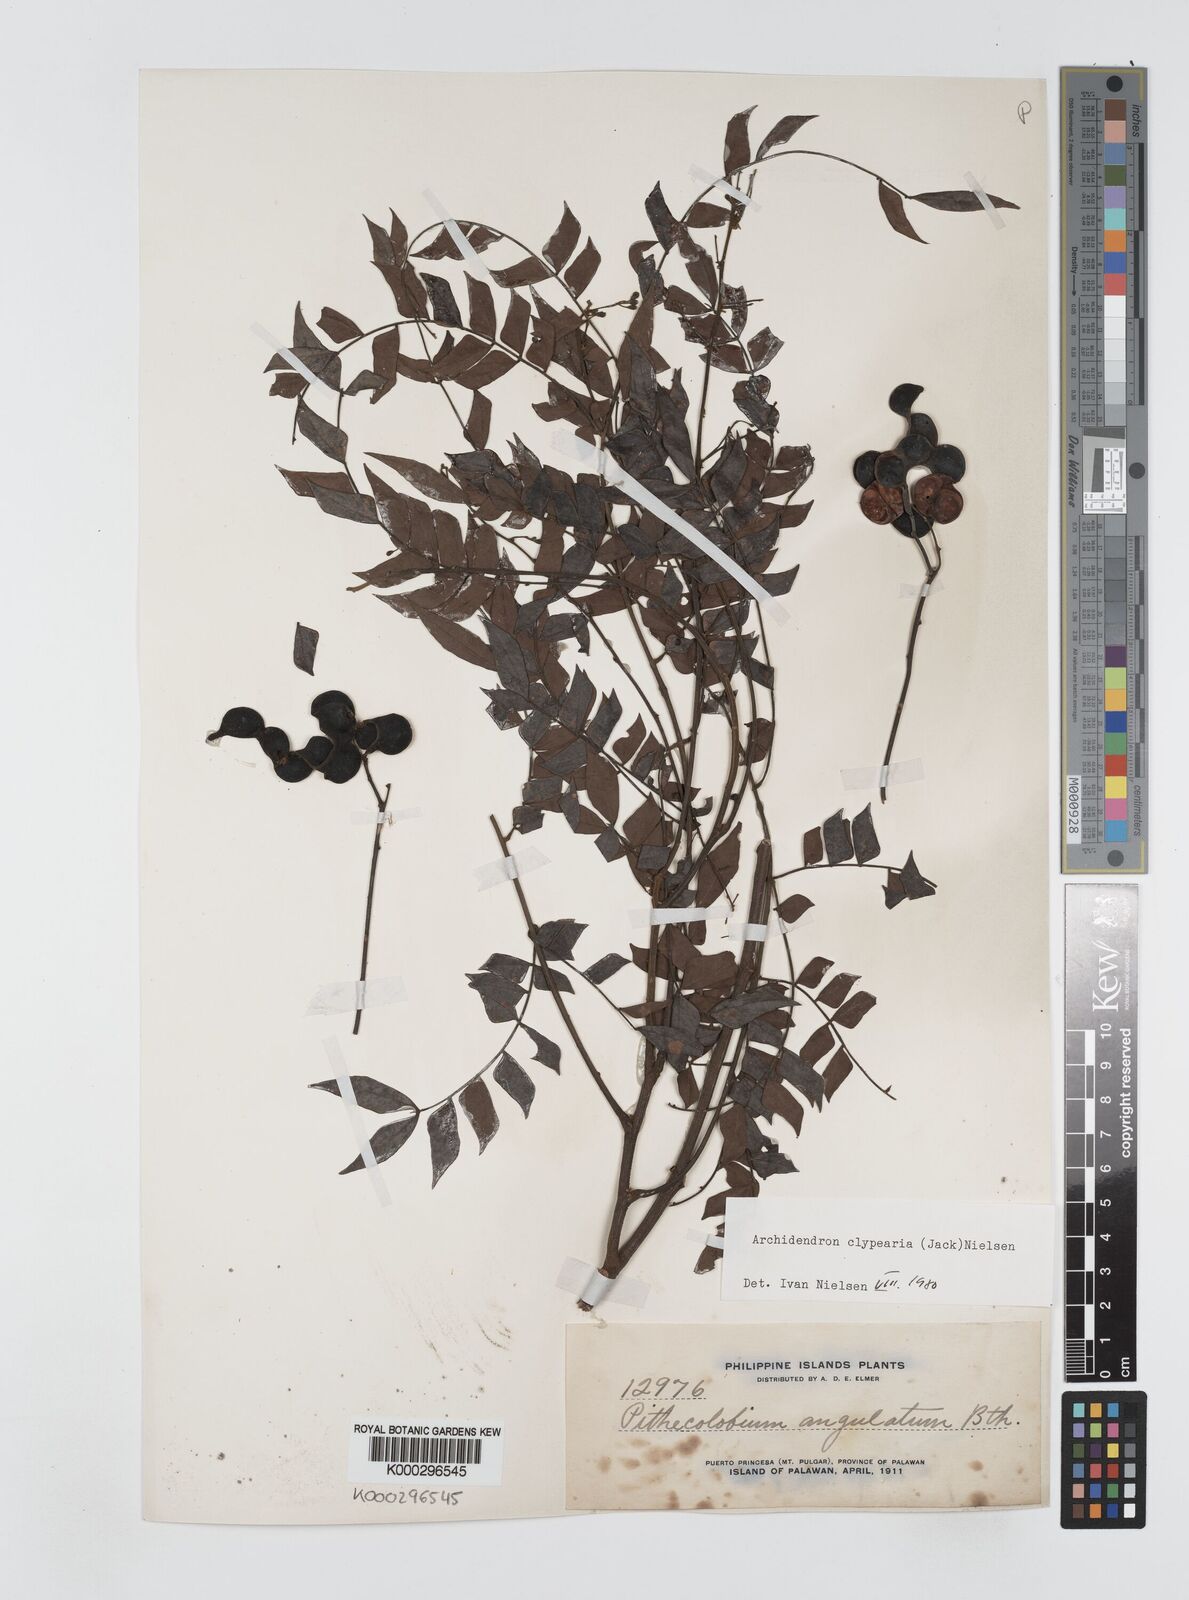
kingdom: Plantae
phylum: Tracheophyta
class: Magnoliopsida
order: Fabales
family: Fabaceae
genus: Archidendron
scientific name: Archidendron clypearia
